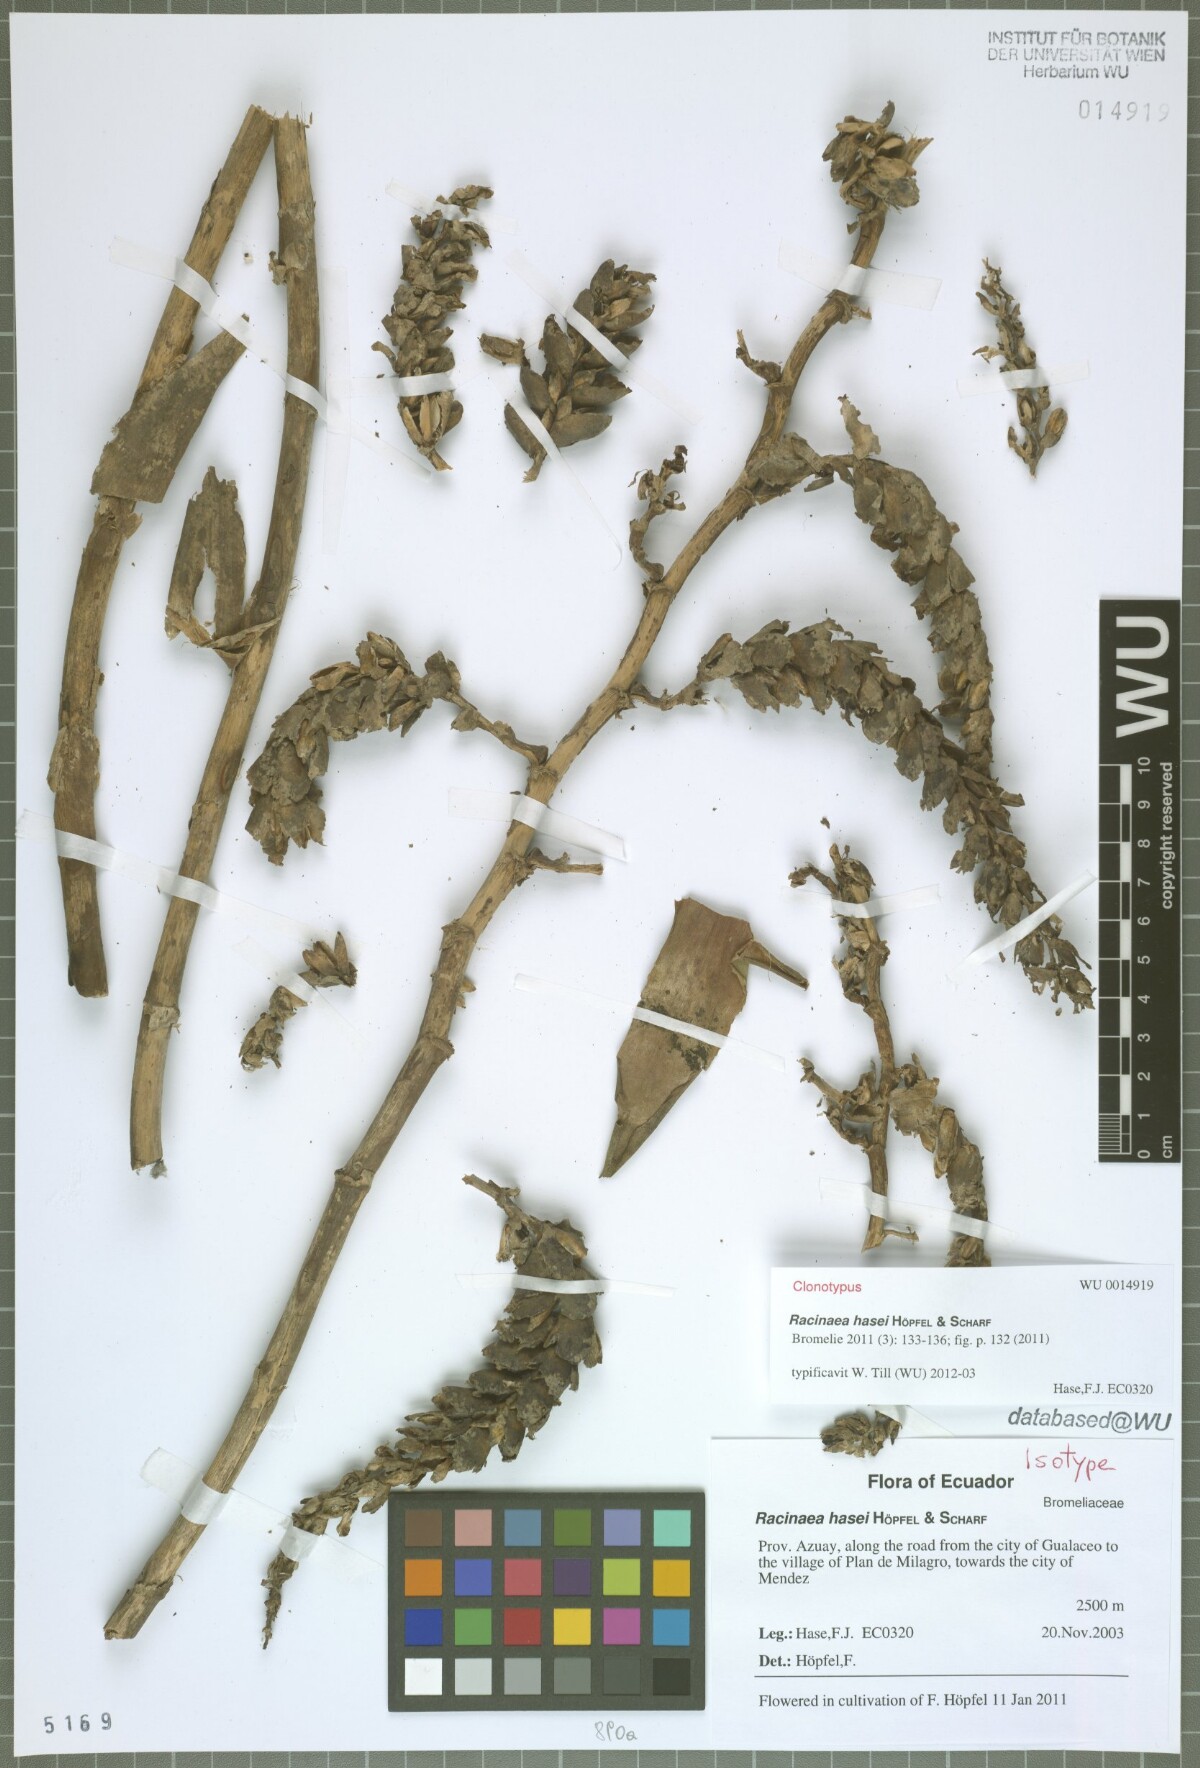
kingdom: Plantae
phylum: Tracheophyta
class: Liliopsida
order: Poales
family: Bromeliaceae
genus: Racinaea
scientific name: Racinaea hasei
